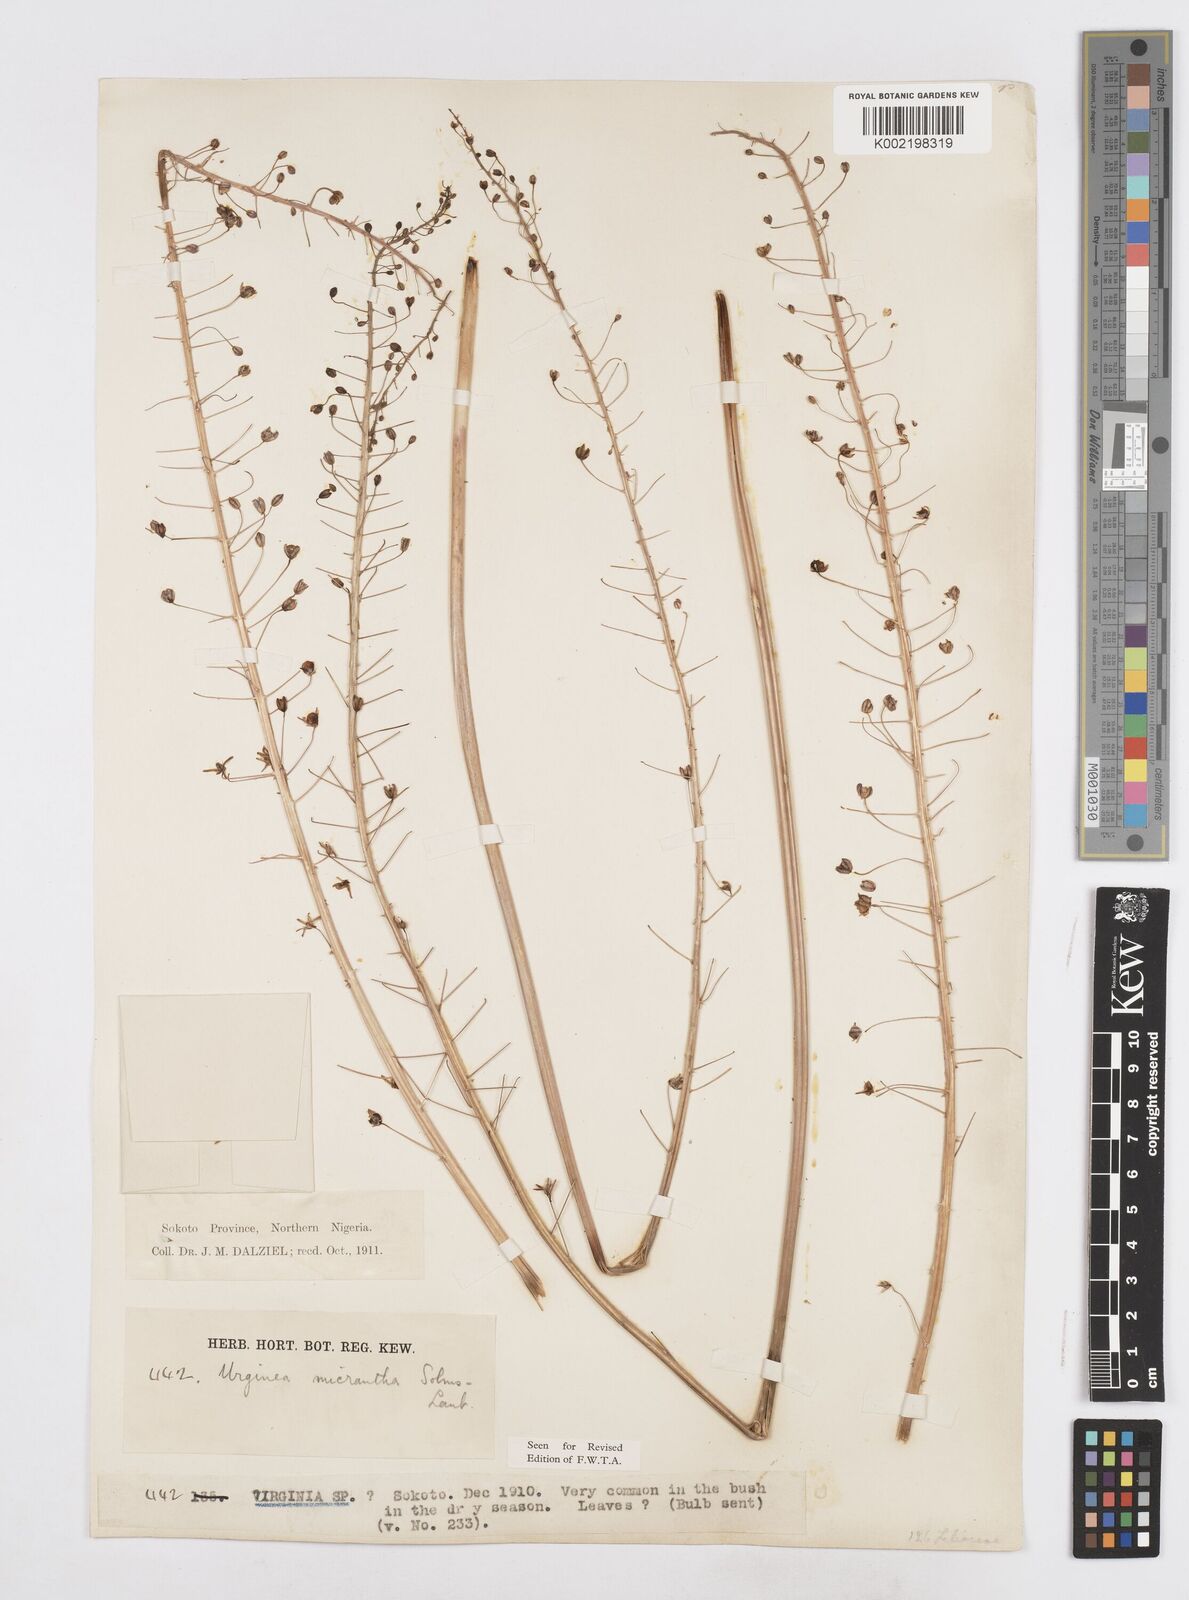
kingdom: Plantae
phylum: Tracheophyta
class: Liliopsida
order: Asparagales
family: Asparagaceae
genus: Drimia
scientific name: Drimia altissima
